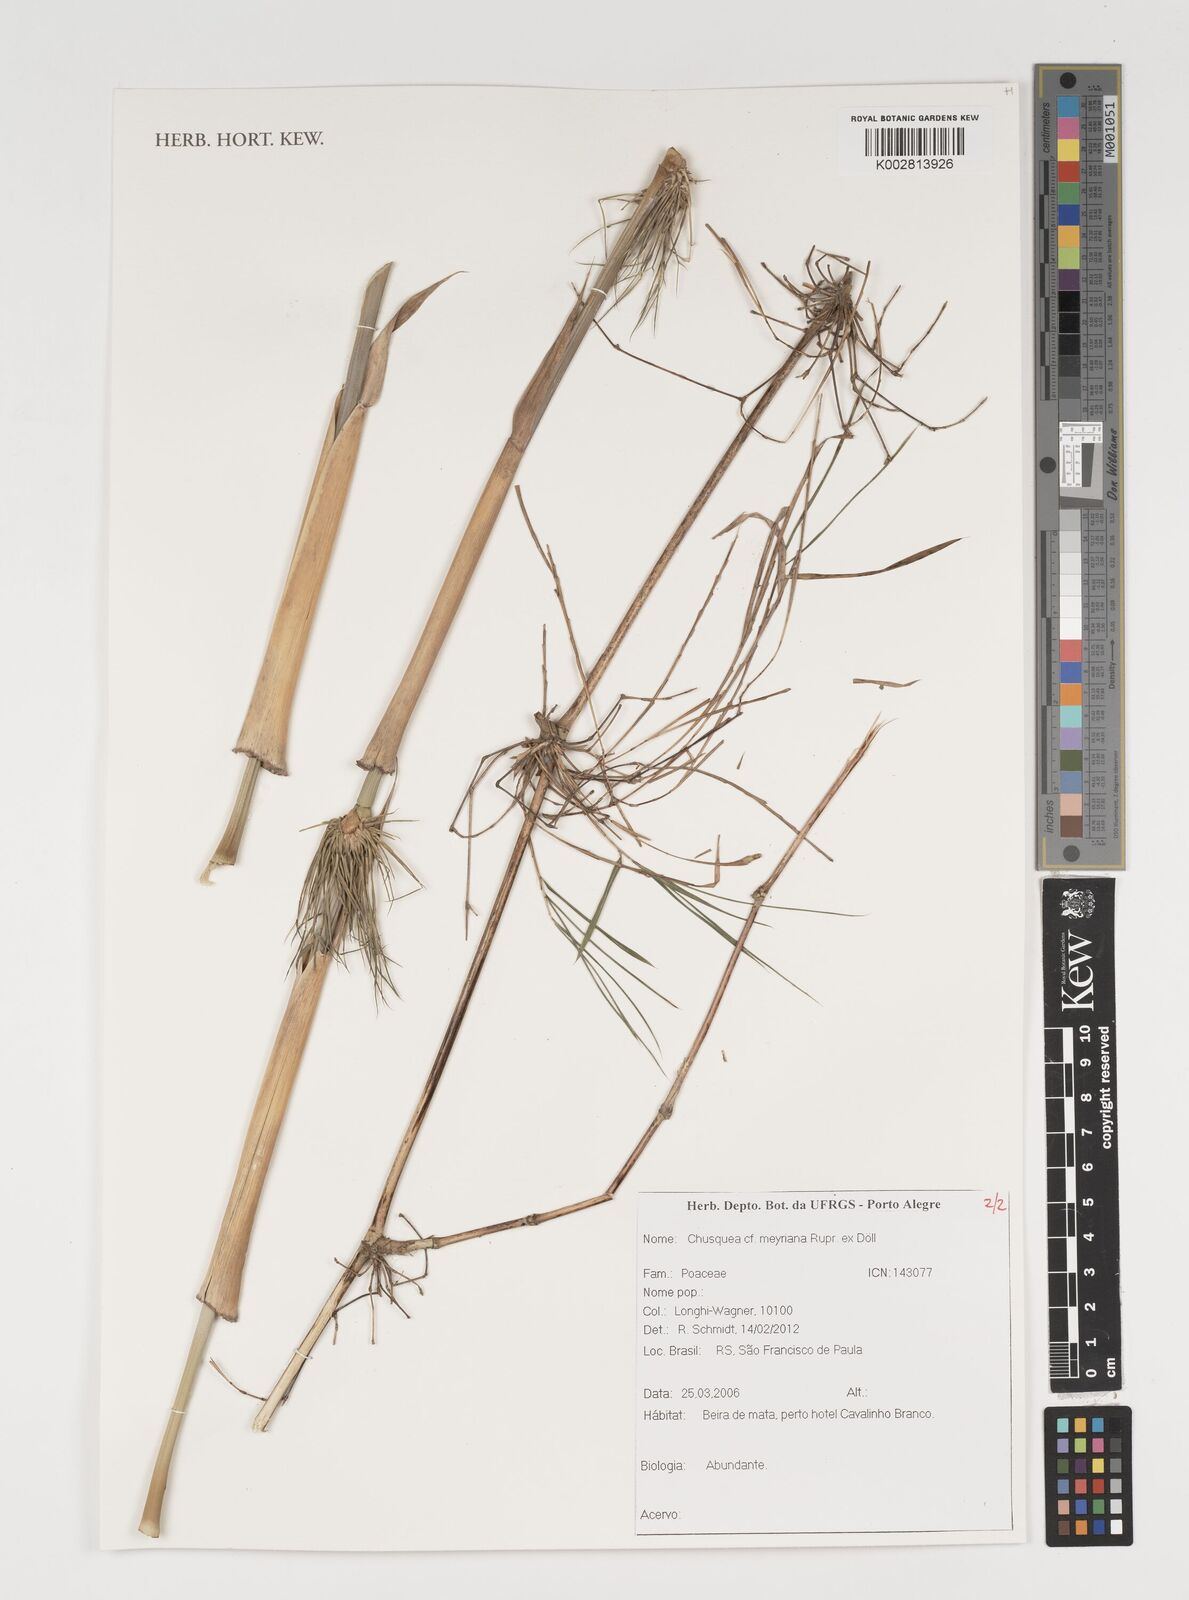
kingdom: Plantae
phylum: Tracheophyta
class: Liliopsida
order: Poales
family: Poaceae
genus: Chusquea
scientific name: Chusquea meyeriana
